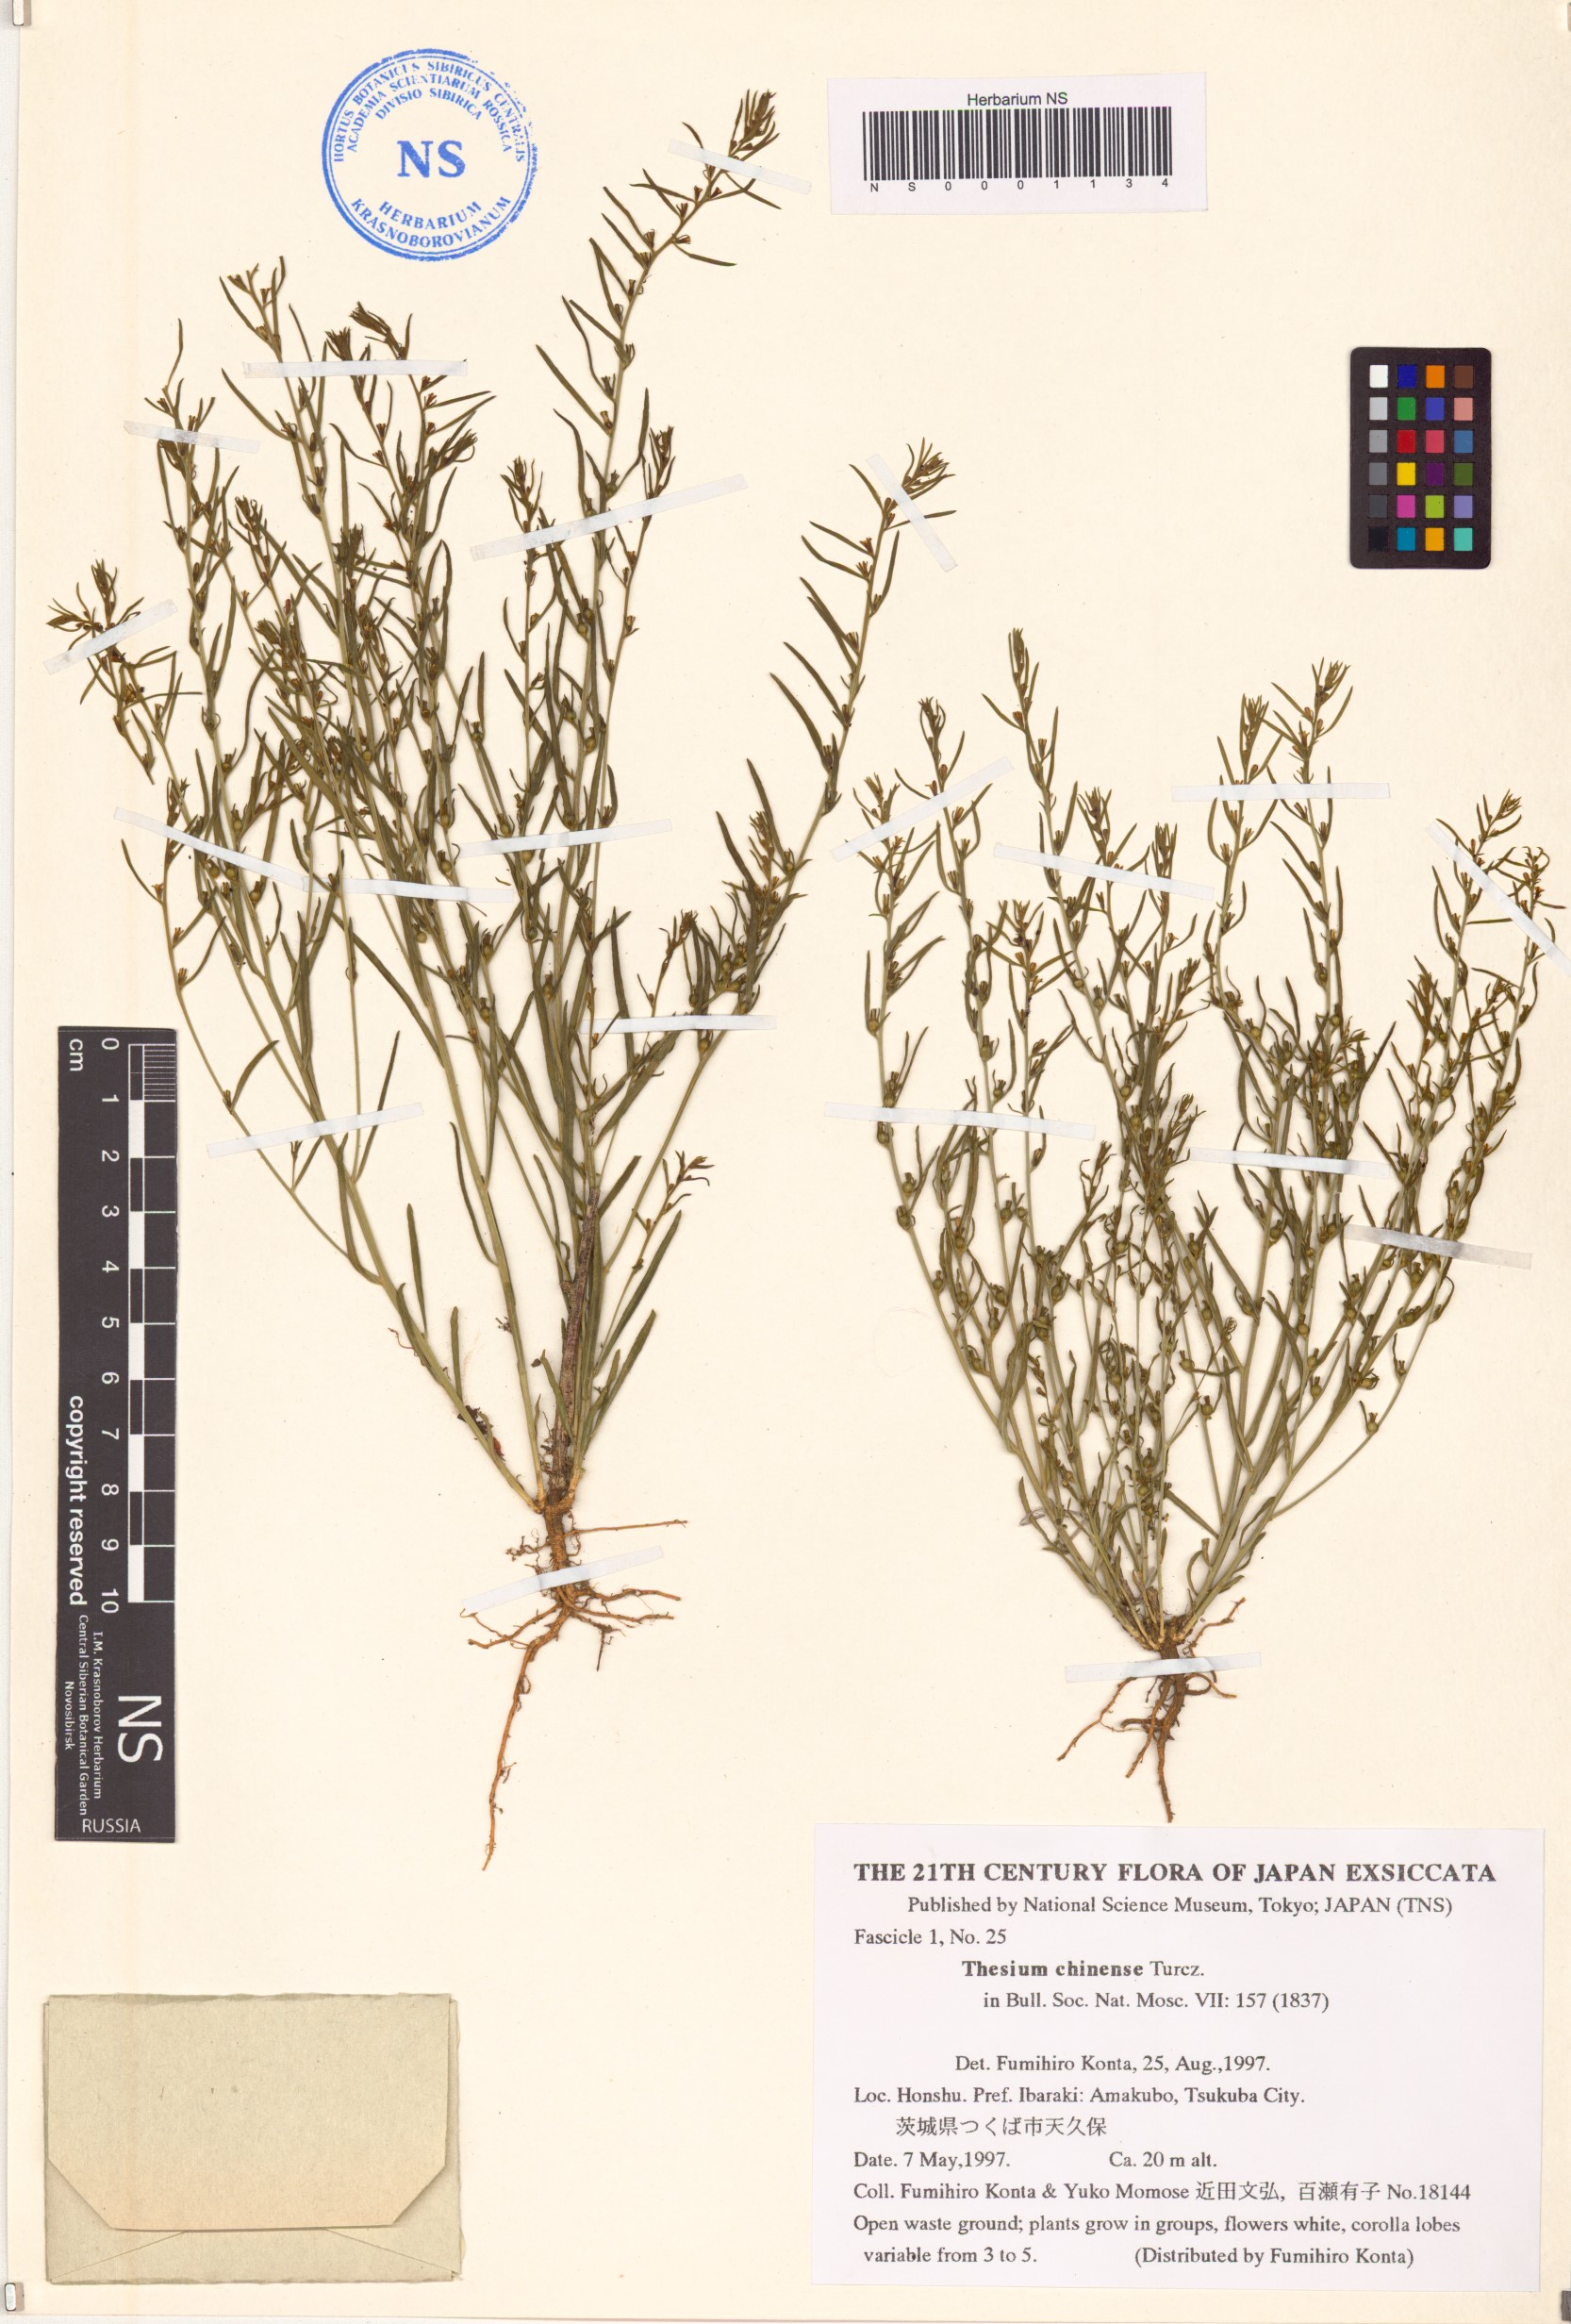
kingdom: Plantae
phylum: Tracheophyta
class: Magnoliopsida
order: Santalales
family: Thesiaceae
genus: Thesium
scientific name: Thesium chinense
